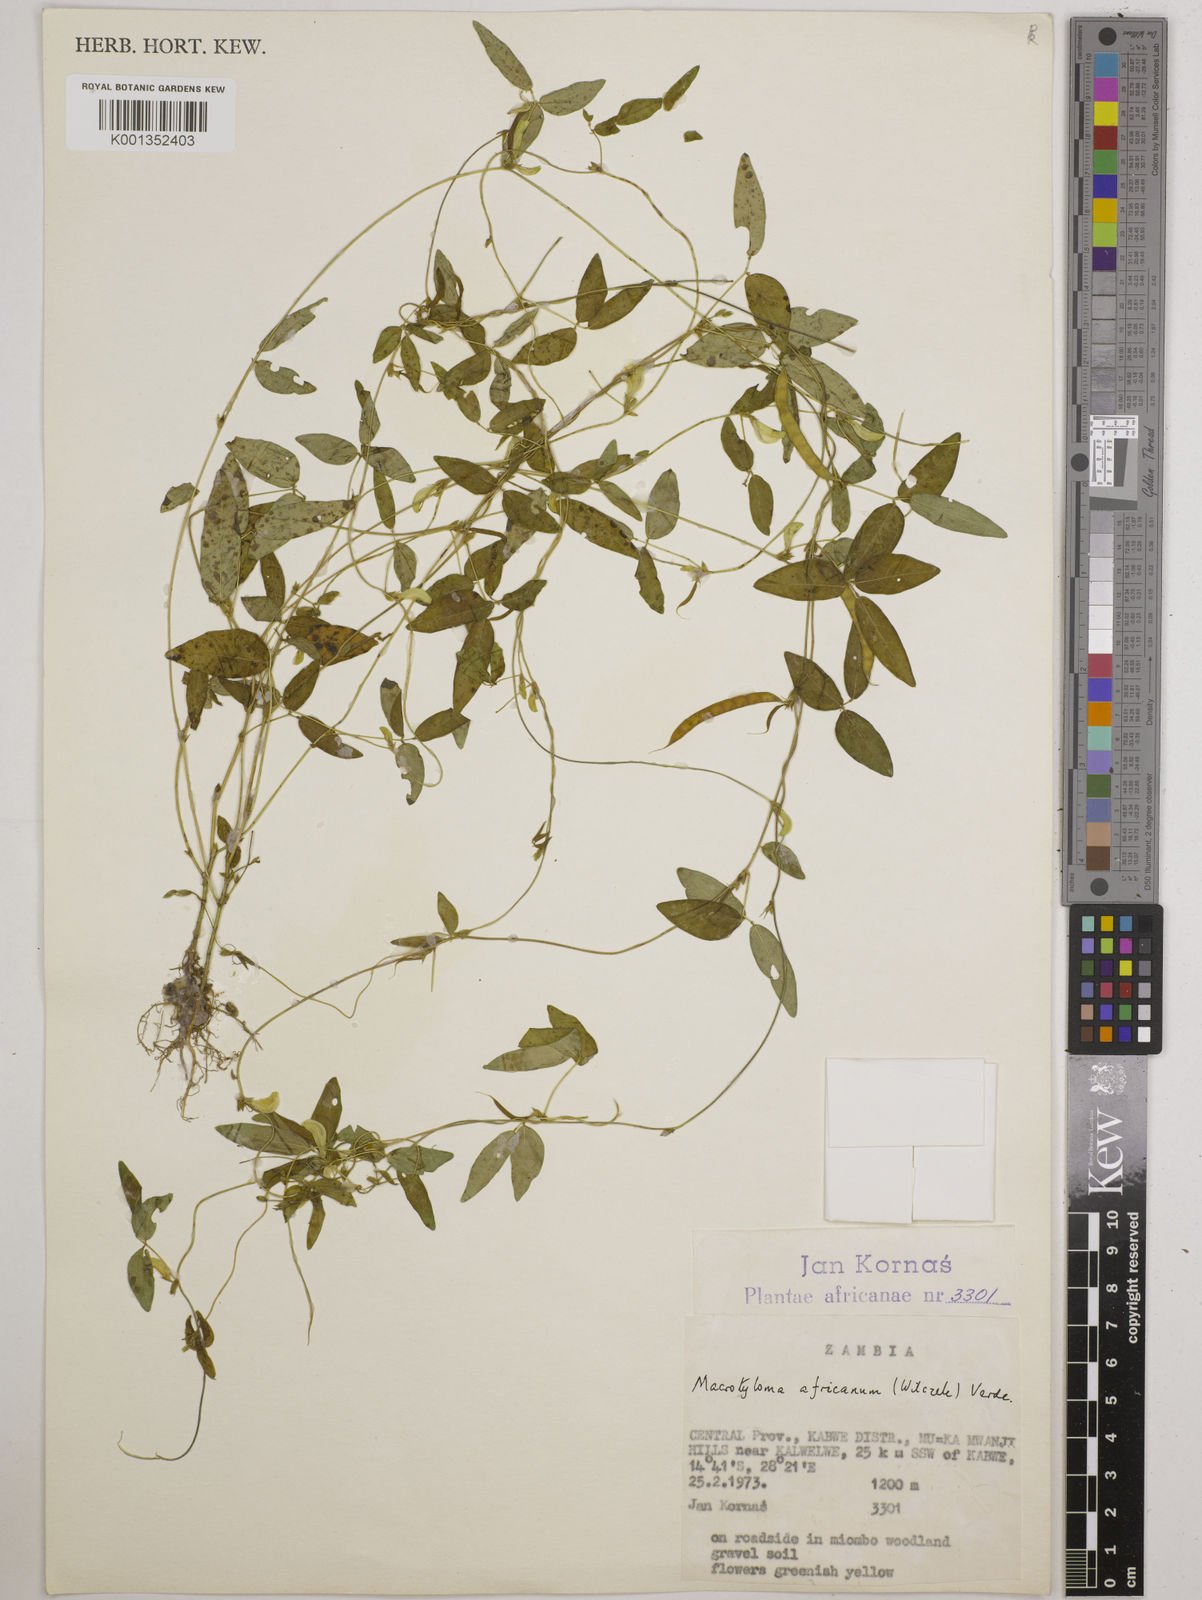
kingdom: Plantae
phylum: Tracheophyta
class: Magnoliopsida
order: Fabales
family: Fabaceae
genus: Macrotyloma
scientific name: Macrotyloma africanum
